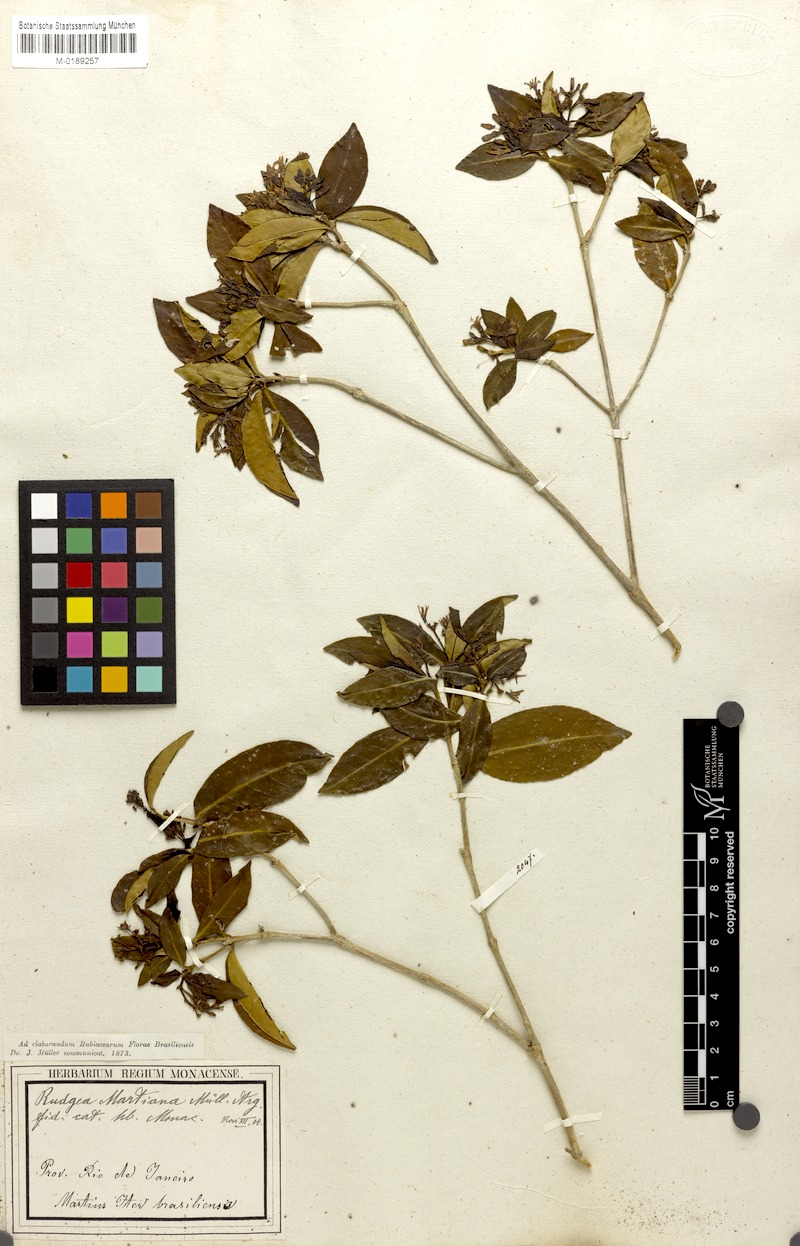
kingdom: Plantae
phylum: Tracheophyta
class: Magnoliopsida
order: Gentianales
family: Rubiaceae
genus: Rudgea
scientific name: Rudgea minor
